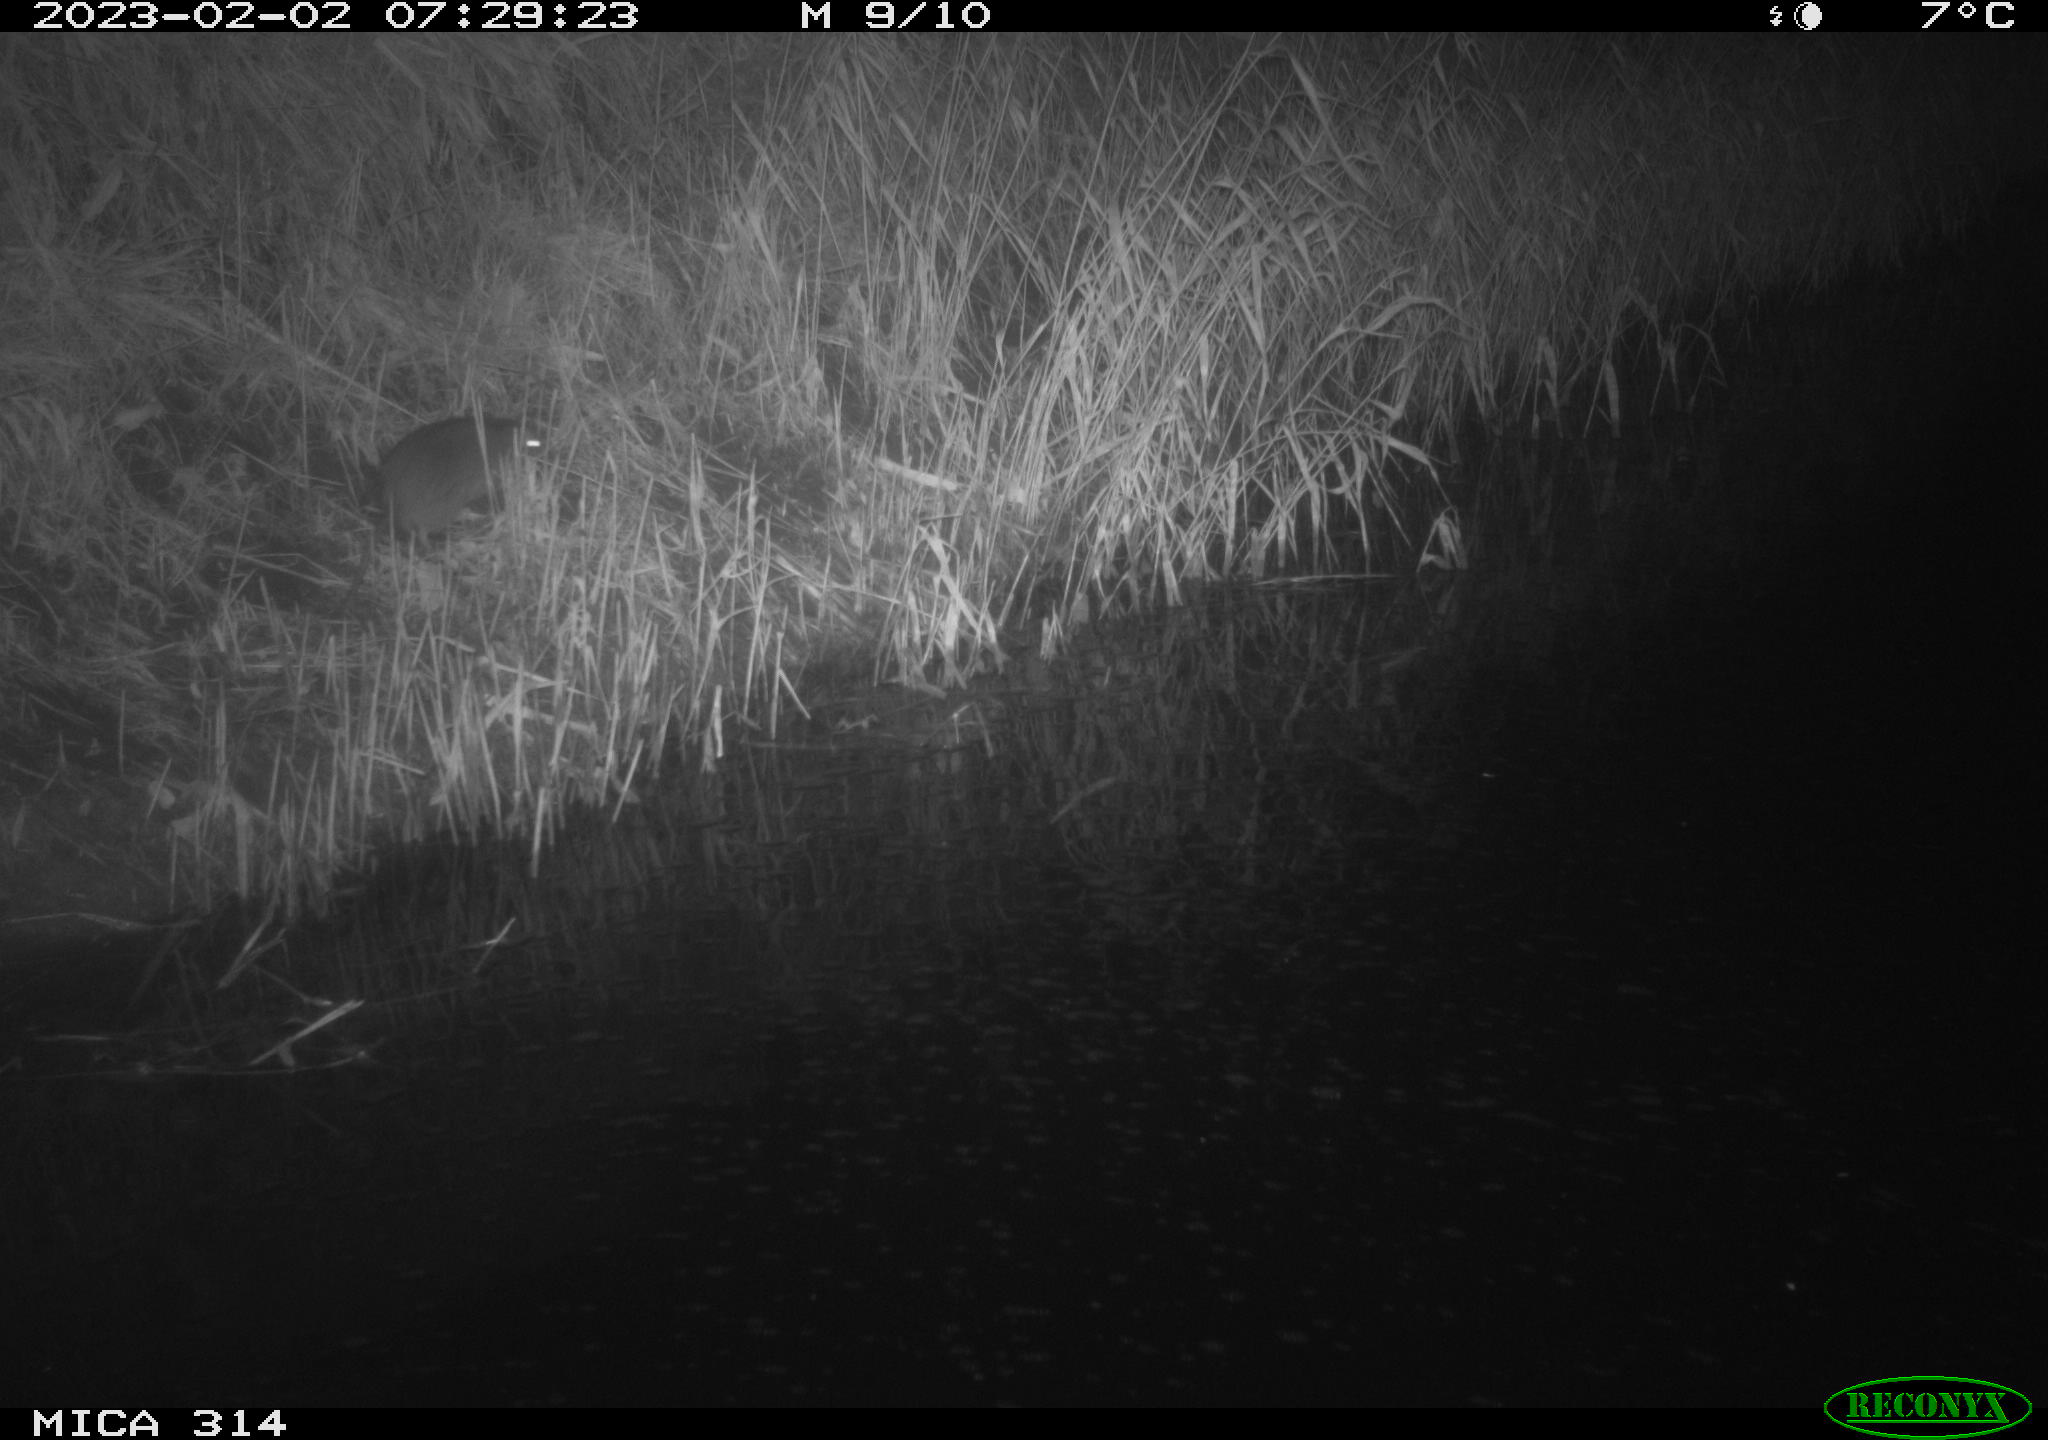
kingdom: Animalia
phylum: Chordata
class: Mammalia
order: Rodentia
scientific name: Rodentia
